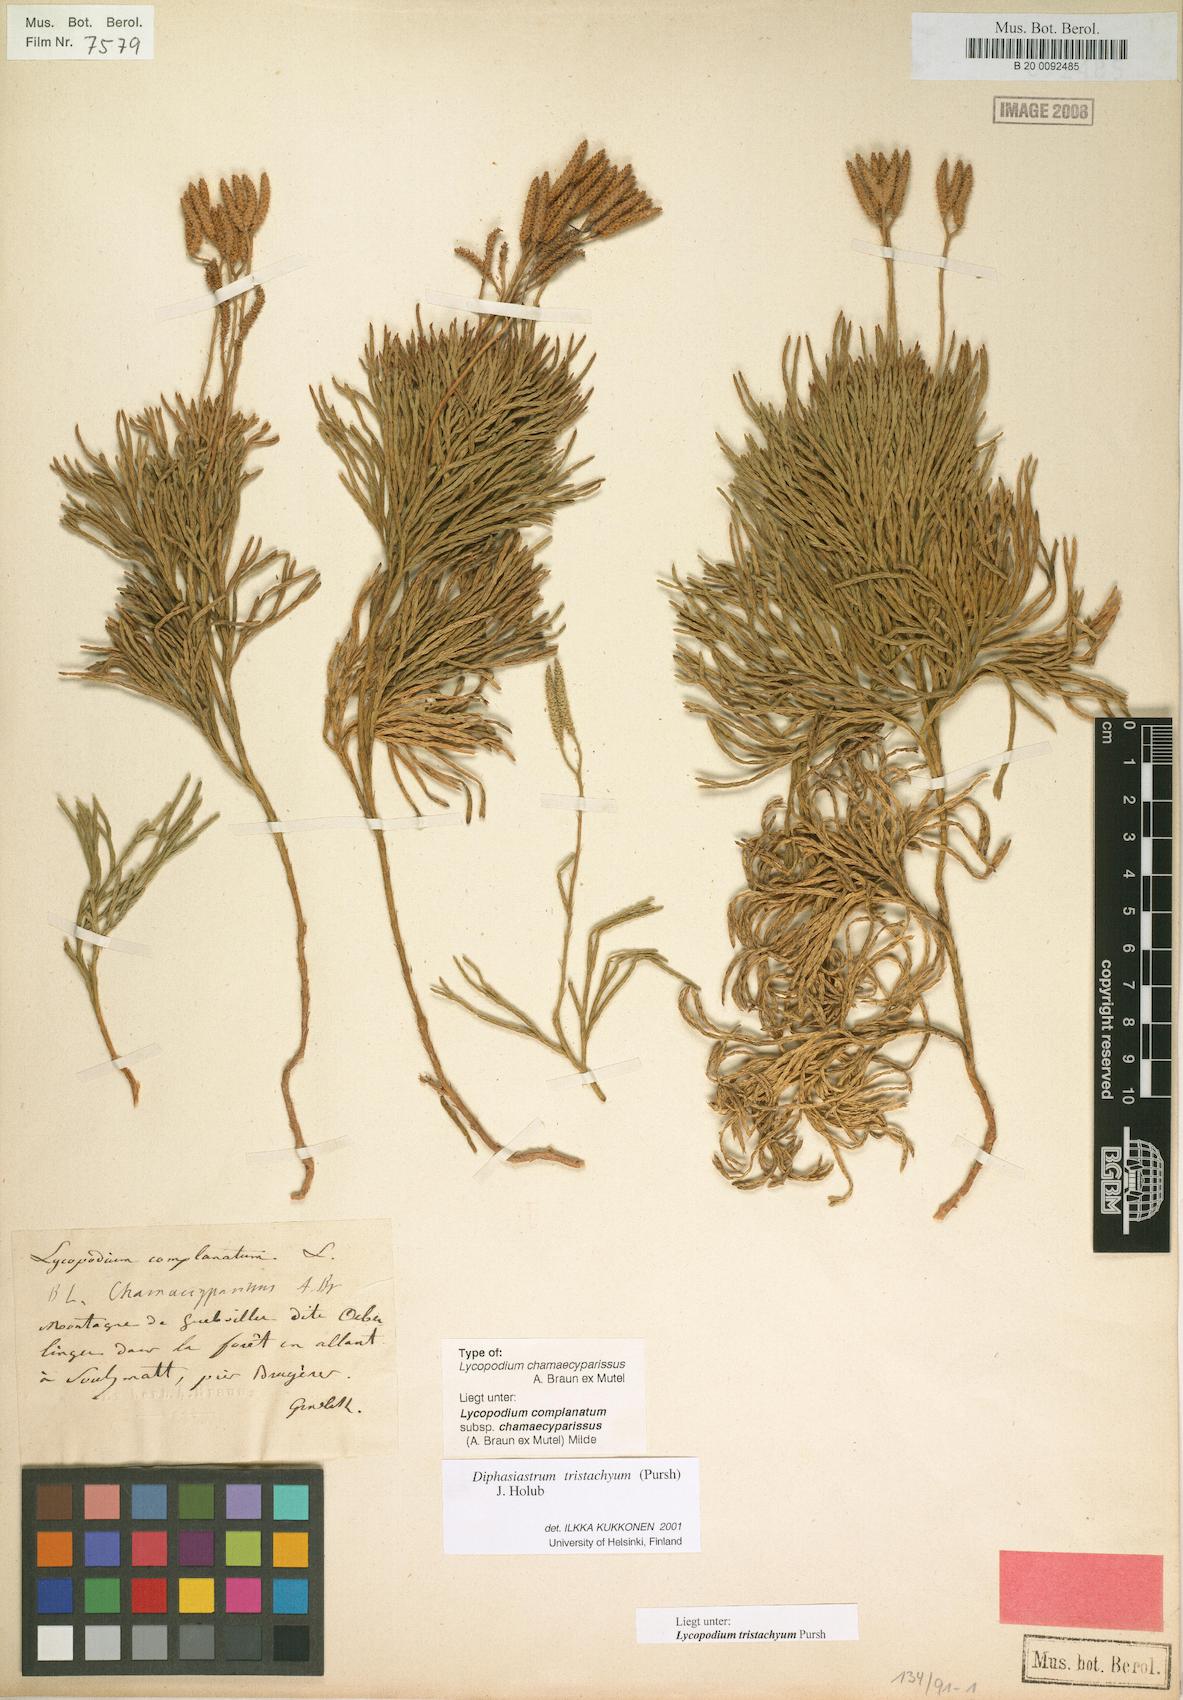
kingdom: Plantae
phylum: Tracheophyta
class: Lycopodiopsida
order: Lycopodiales
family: Lycopodiaceae
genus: Diphasiastrum
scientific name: Diphasiastrum tristachyum
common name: Blue ground-cedar
